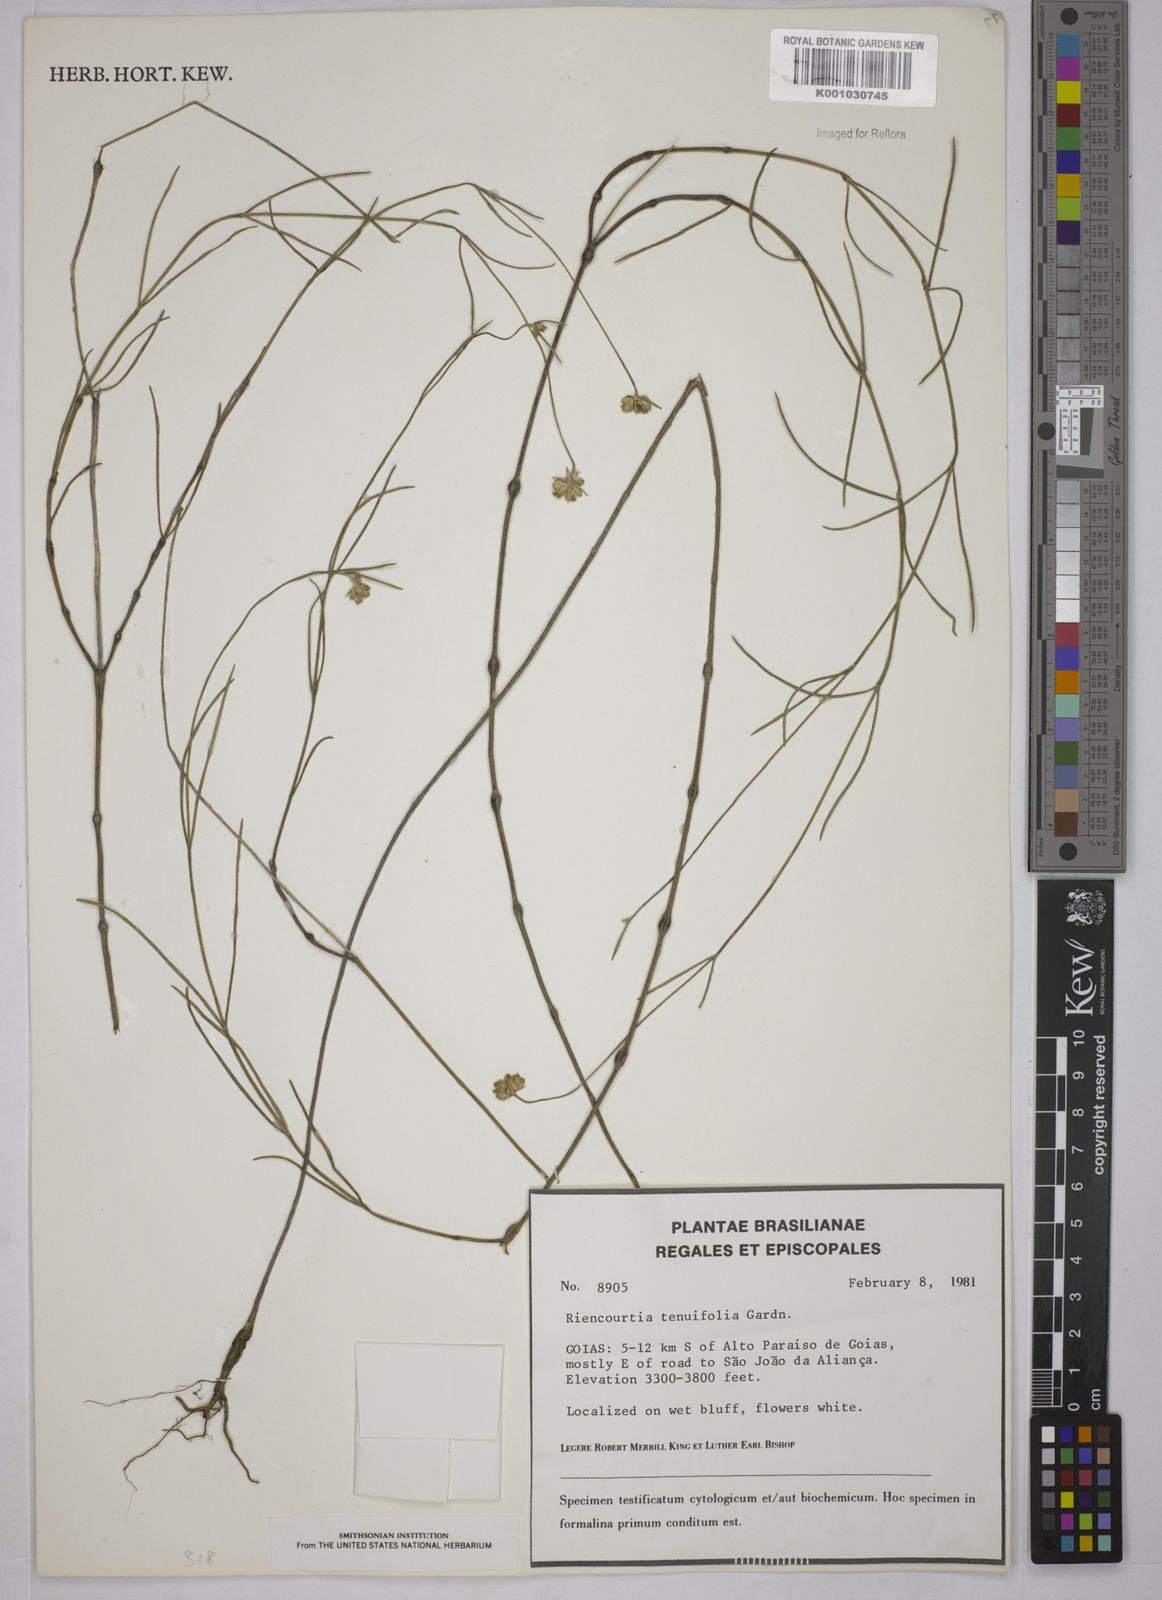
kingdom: Plantae
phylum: Tracheophyta
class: Magnoliopsida
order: Asterales
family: Asteraceae
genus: Riencourtia
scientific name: Riencourtia tenuifolia
